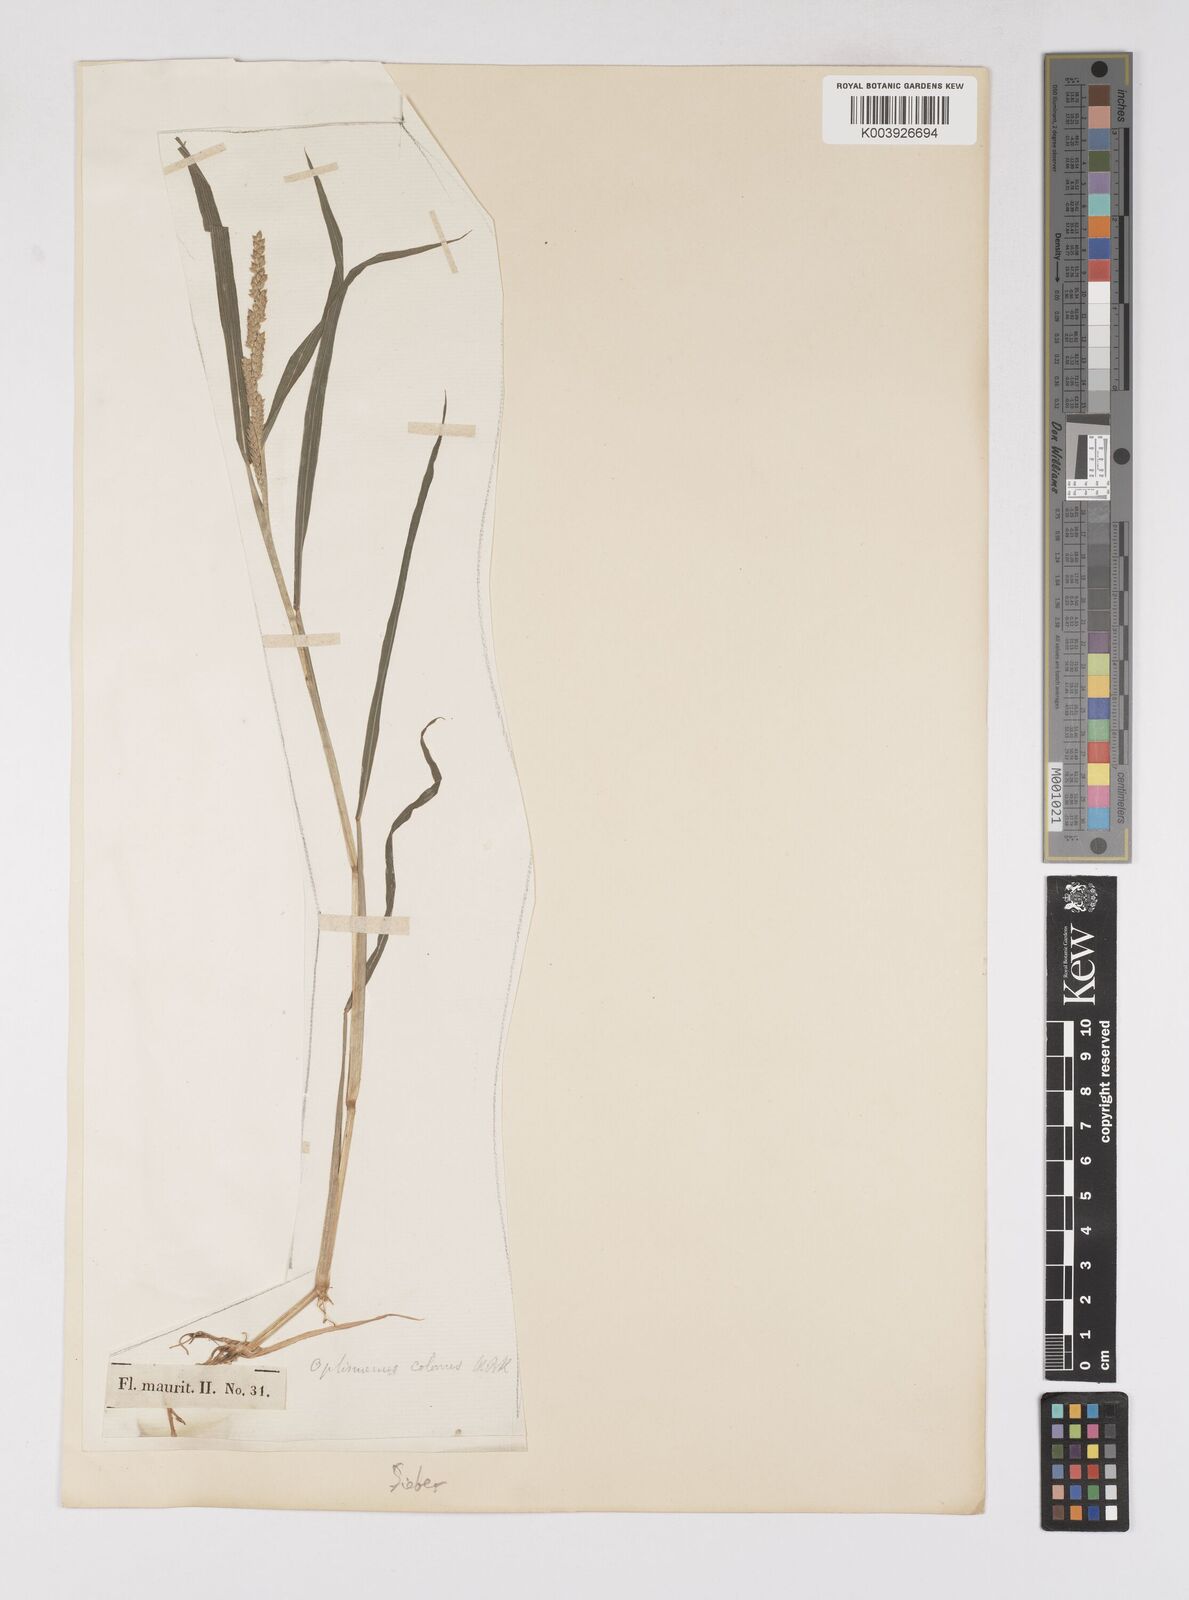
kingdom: Plantae
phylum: Tracheophyta
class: Liliopsida
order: Poales
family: Poaceae
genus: Echinochloa
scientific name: Echinochloa colonum
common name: Jungle rice
